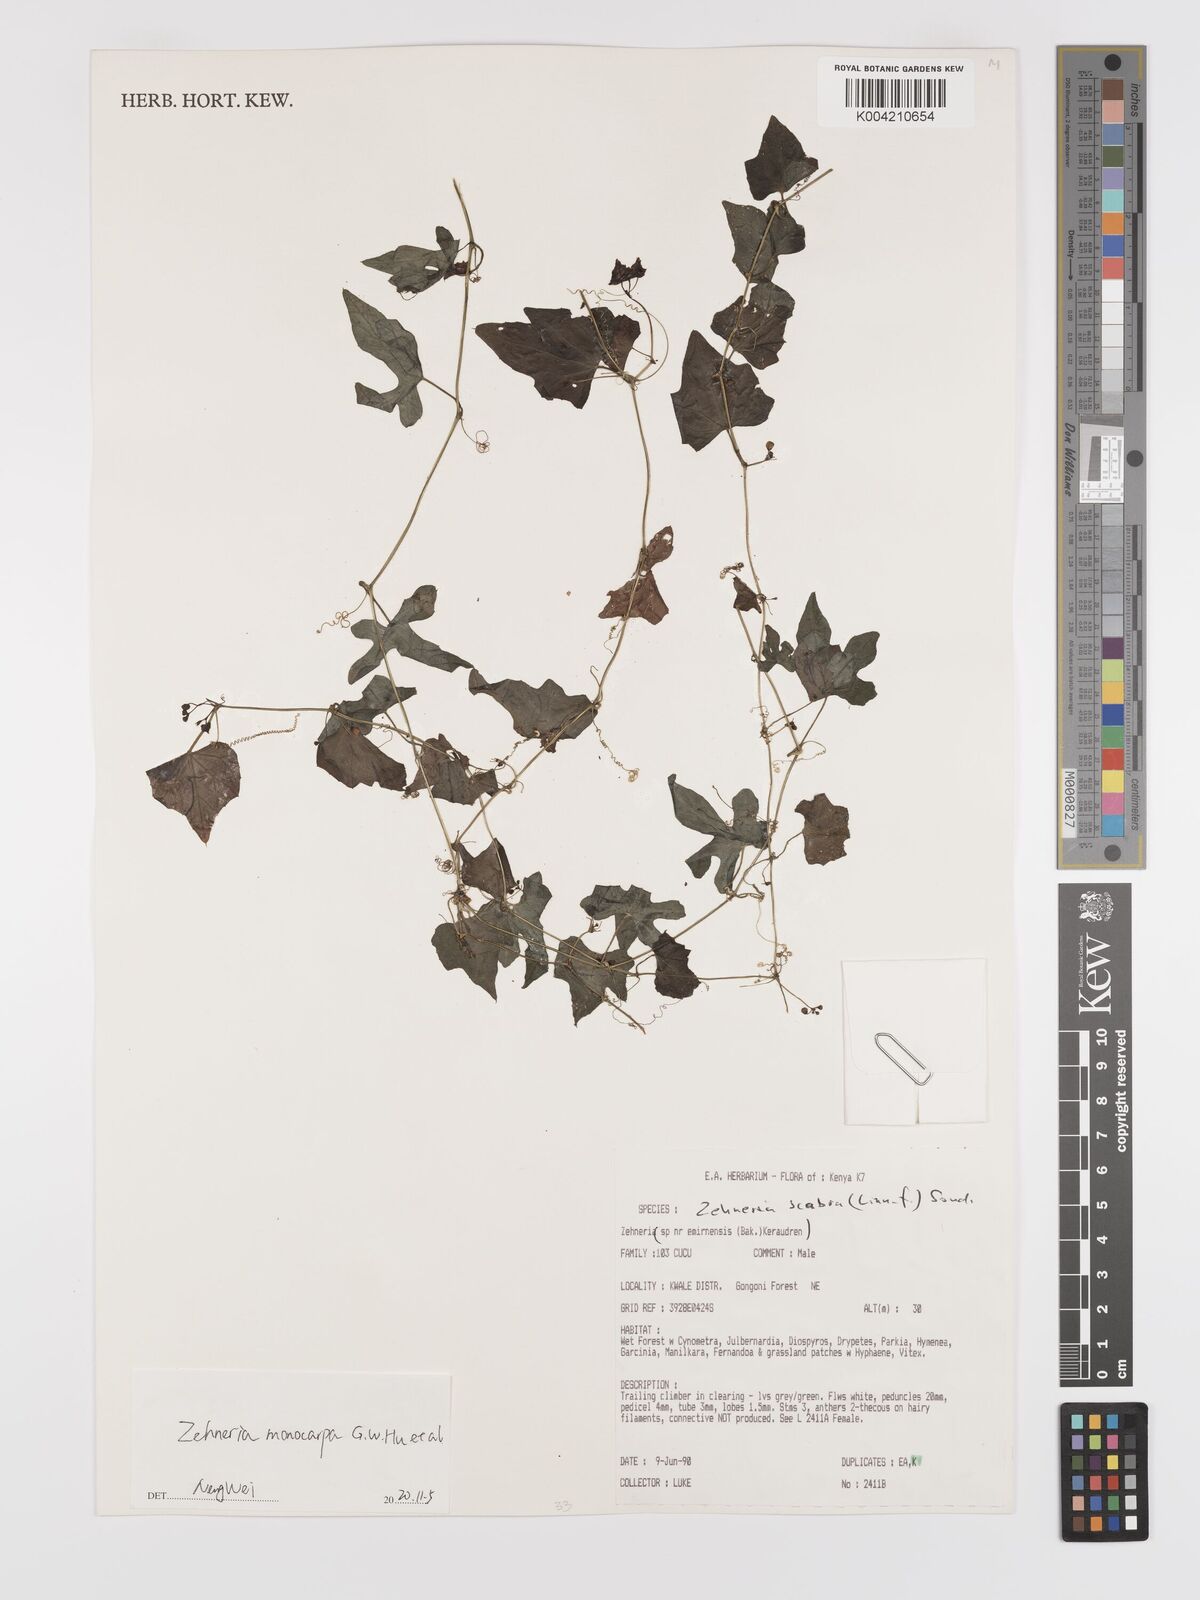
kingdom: Plantae
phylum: Tracheophyta
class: Magnoliopsida
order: Cucurbitales
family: Cucurbitaceae
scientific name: Cucurbitaceae
